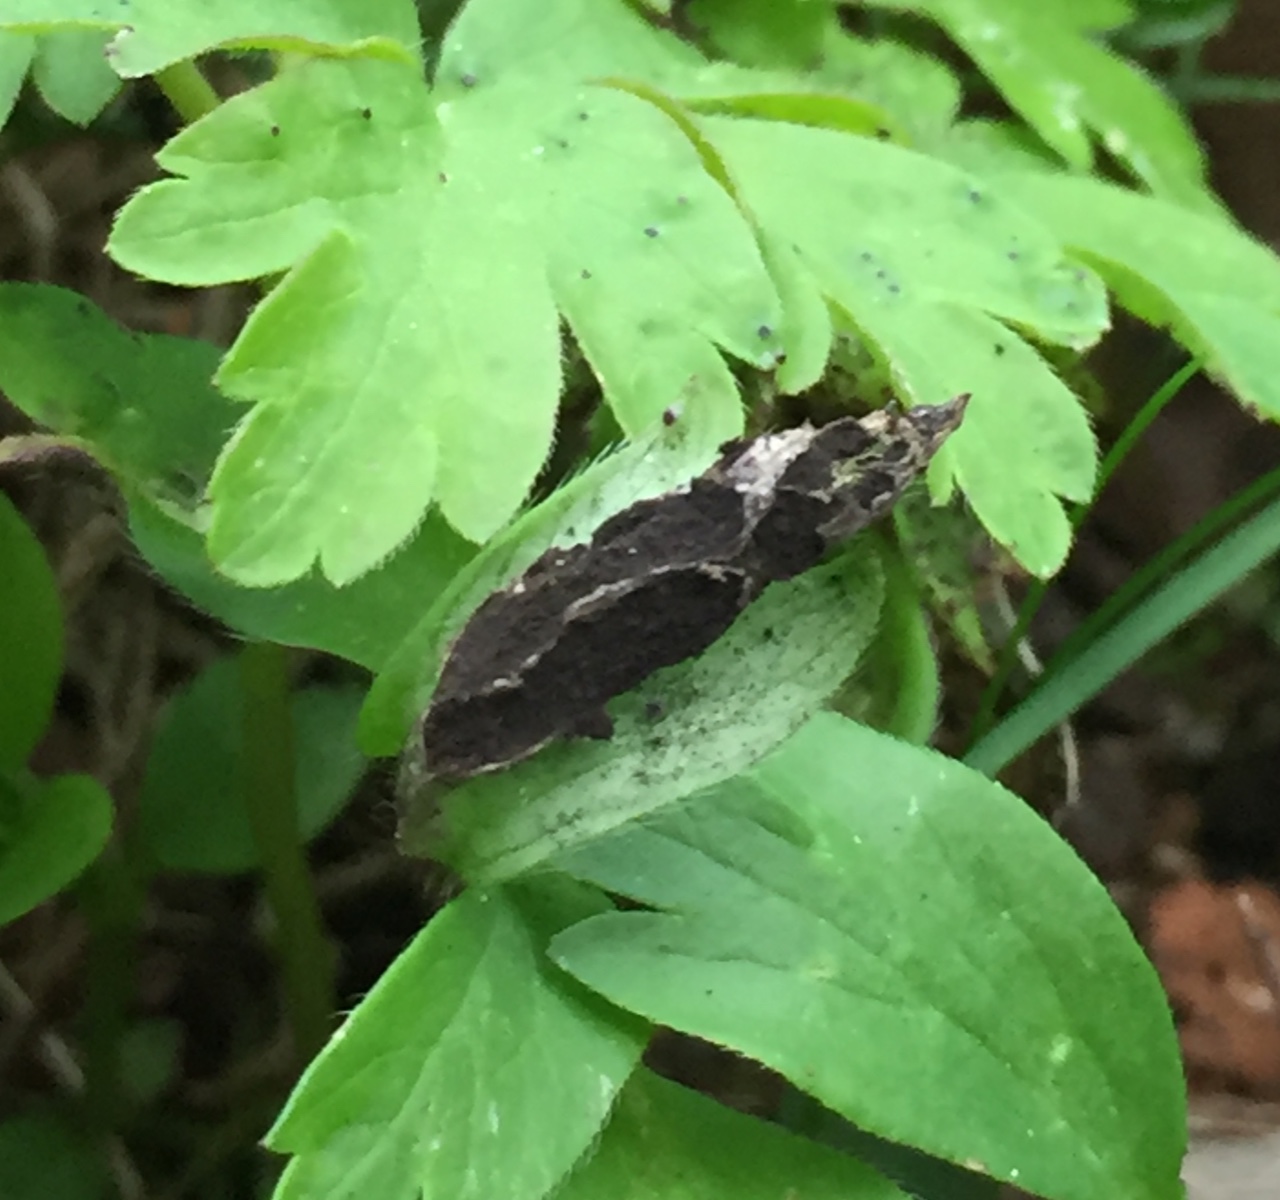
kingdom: Fungi
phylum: Basidiomycota
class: Ustilaginomycetes
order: Urocystidales
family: Urocystidaceae
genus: Urocystis
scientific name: Urocystis anemones
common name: anemone-brand
